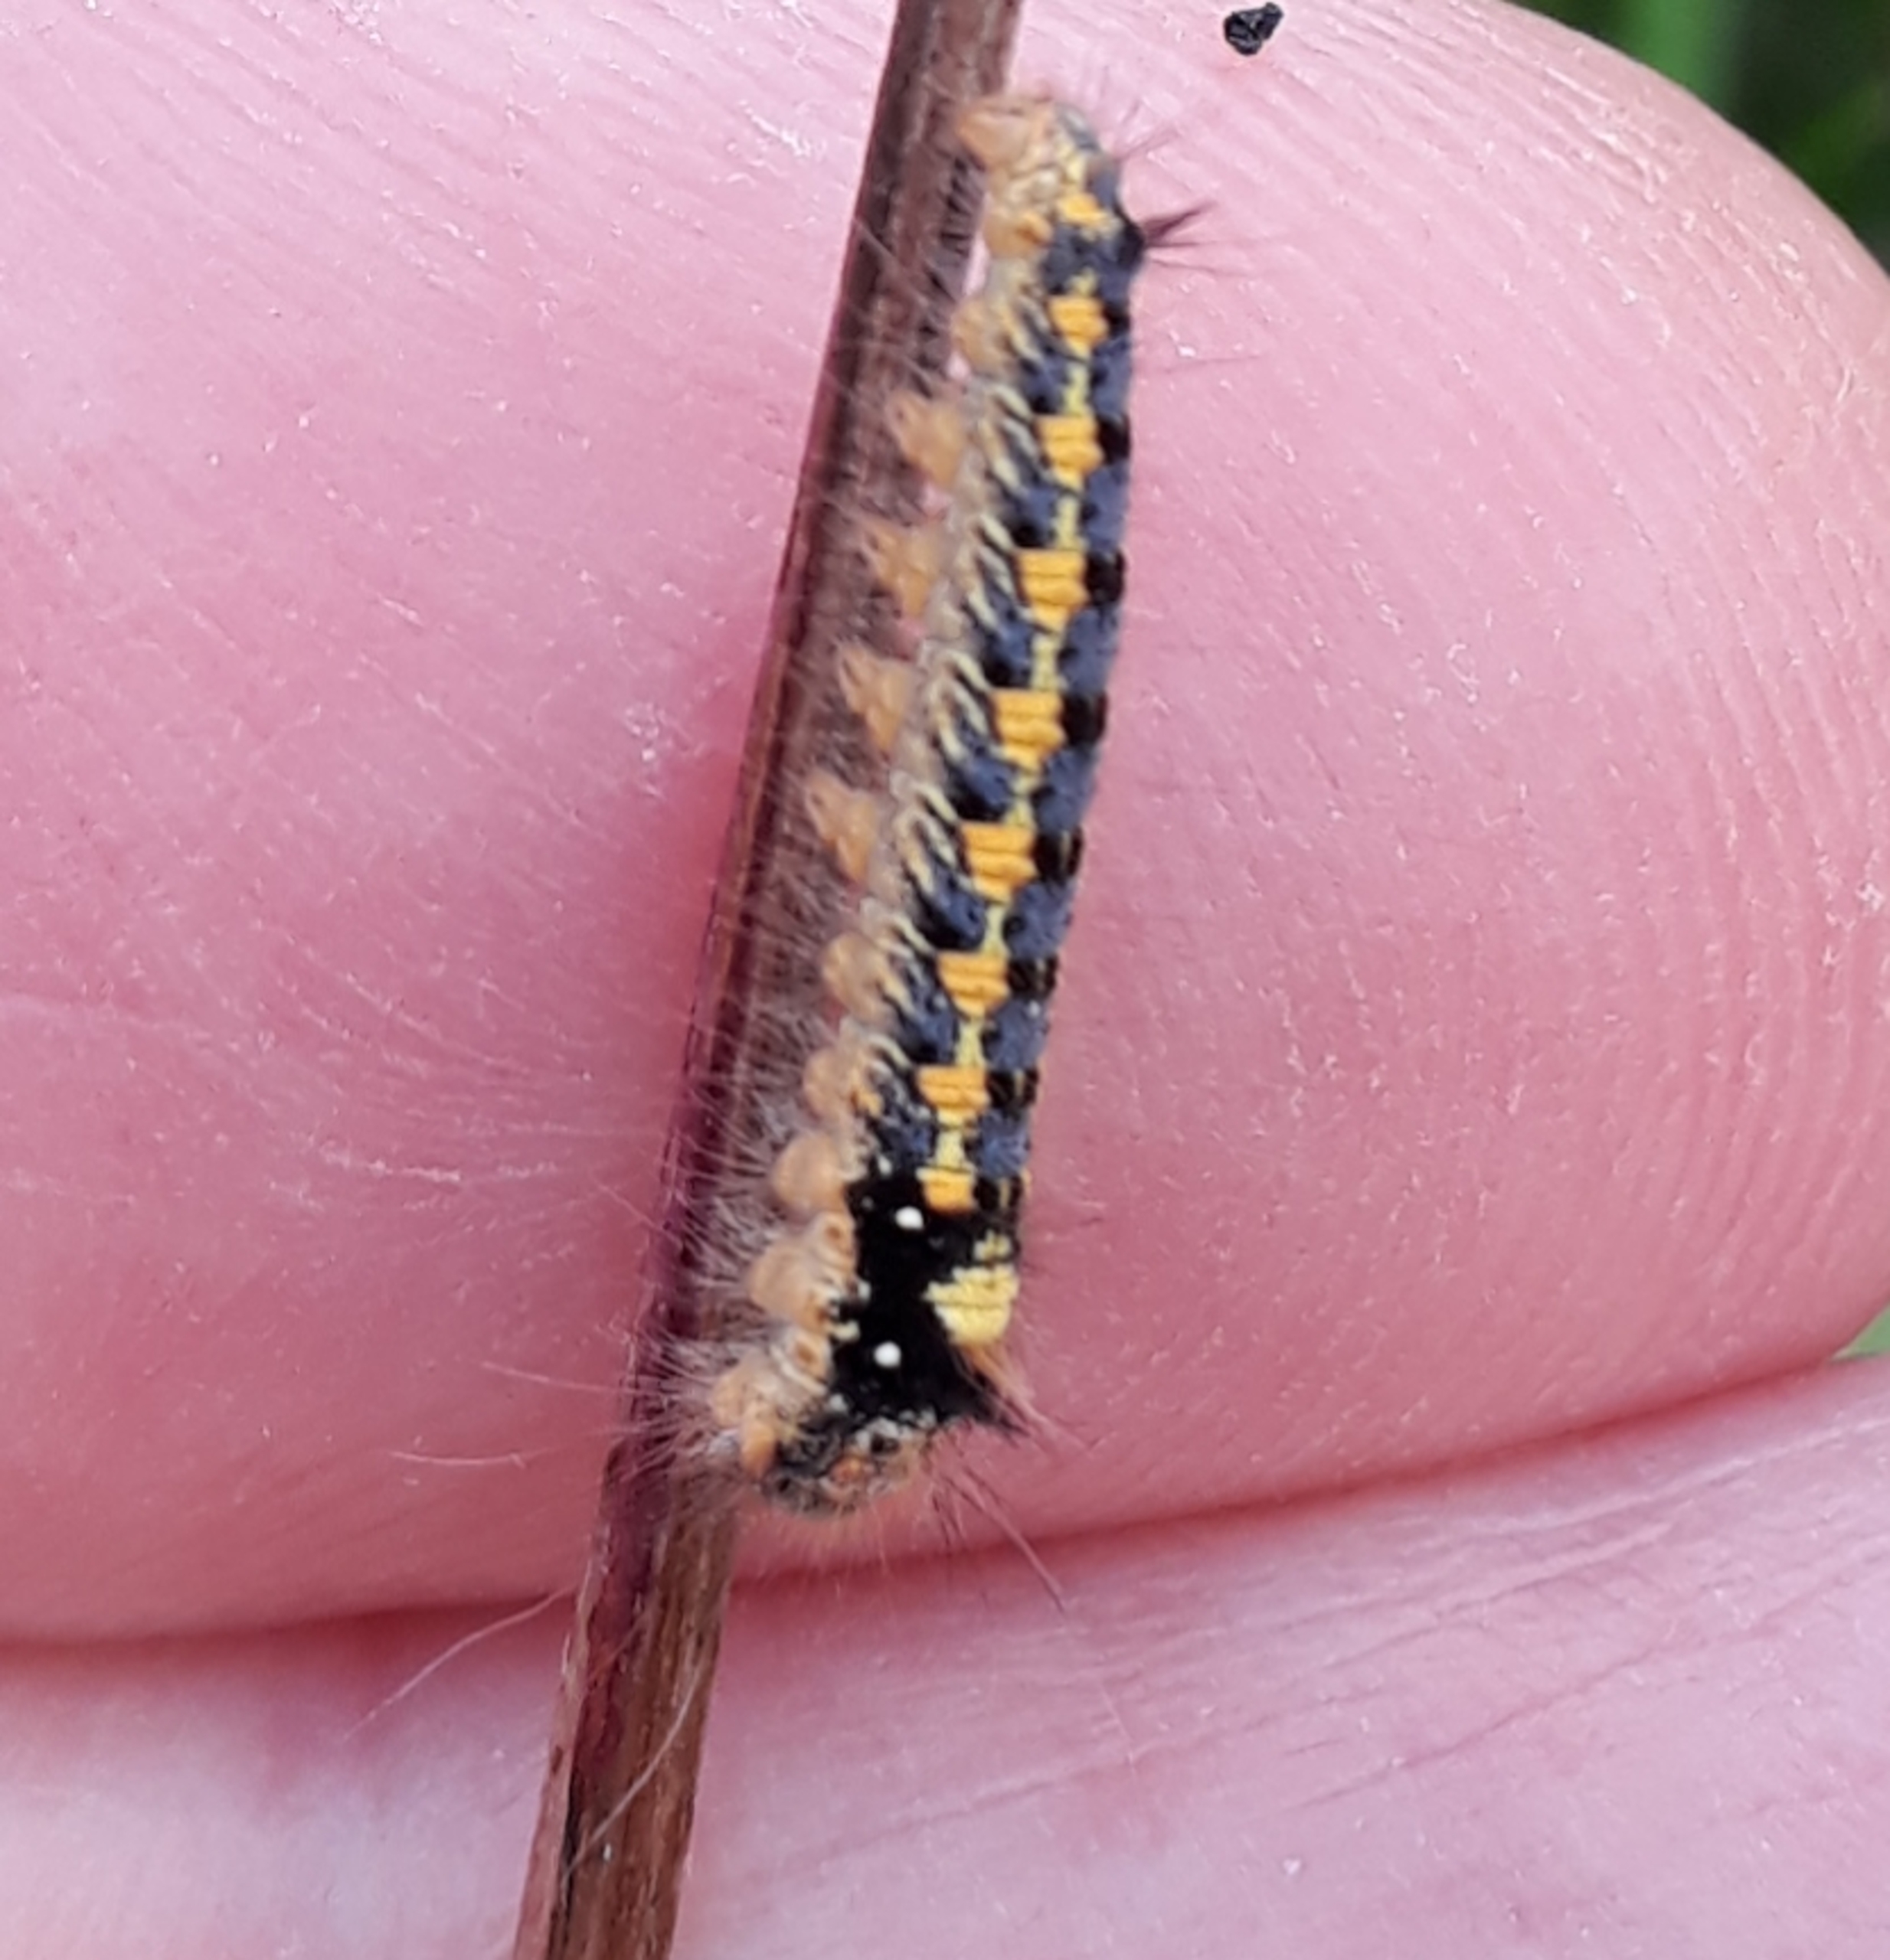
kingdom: Animalia
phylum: Arthropoda
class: Insecta
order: Lepidoptera
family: Lasiocampidae
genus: Euthrix
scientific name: Euthrix potatoria
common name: Græsspinder
